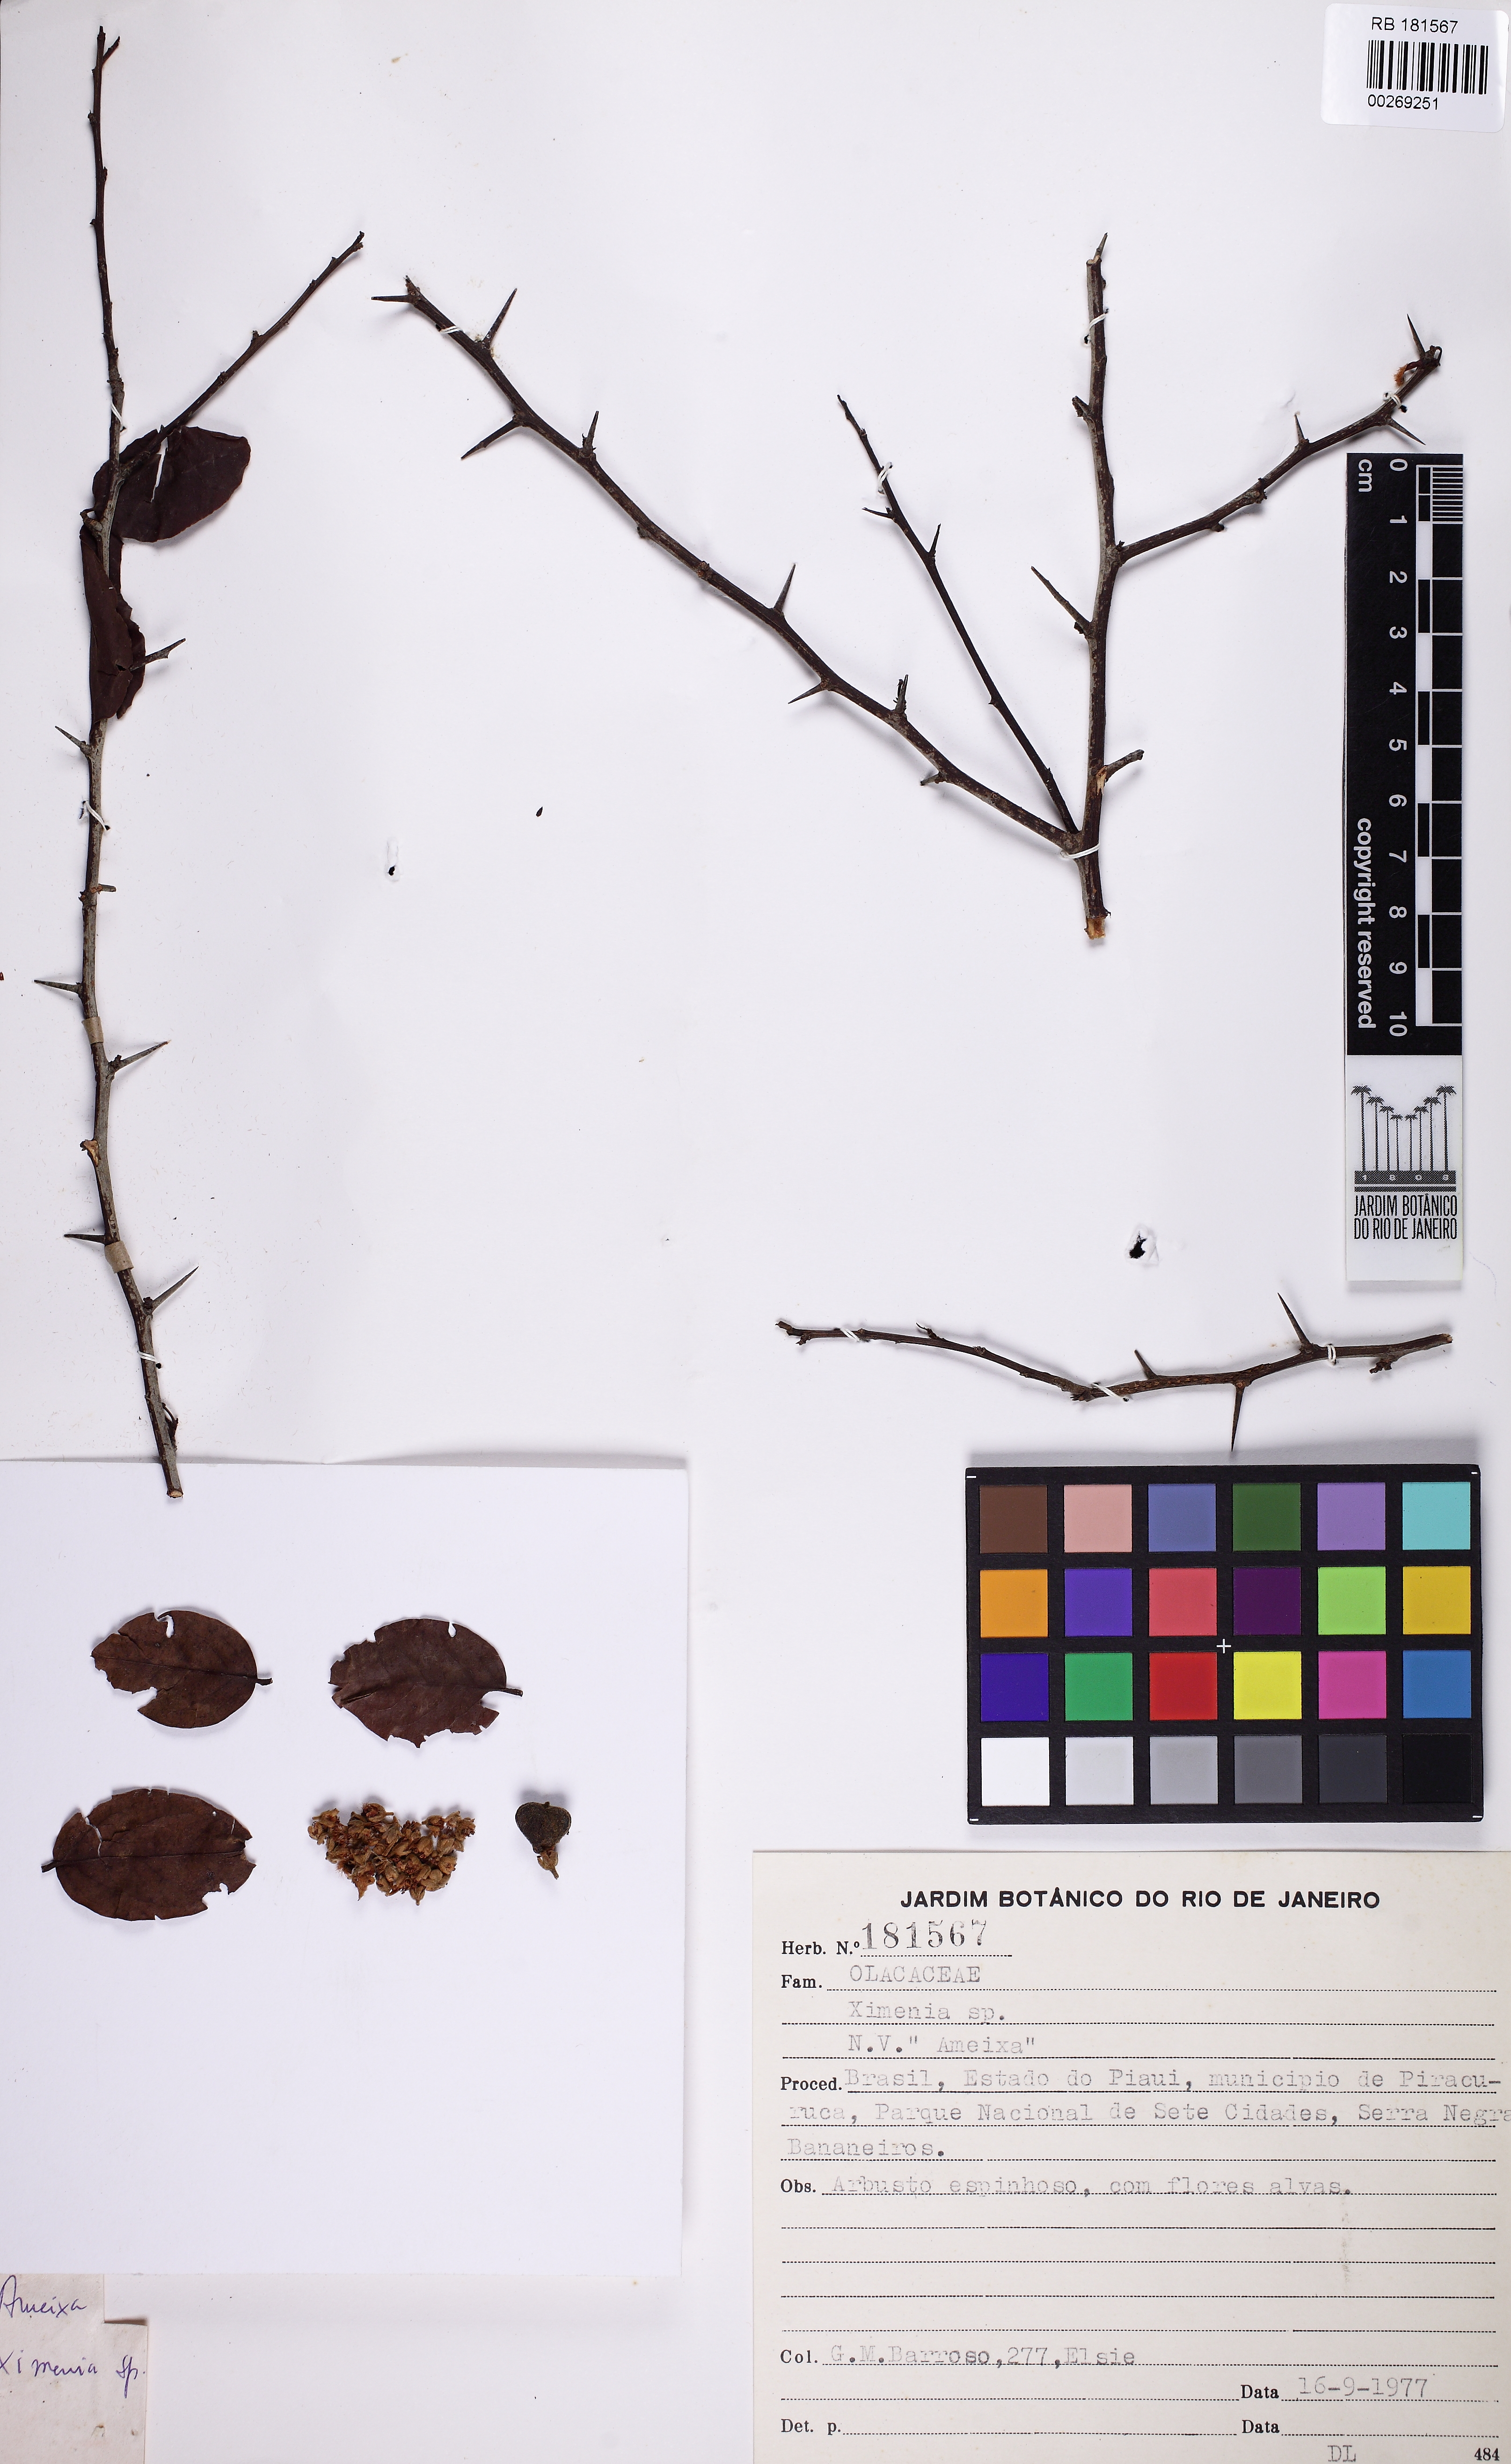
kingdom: Plantae
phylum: Tracheophyta
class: Magnoliopsida
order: Santalales
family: Ximeniaceae
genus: Ximenia
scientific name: Ximenia
